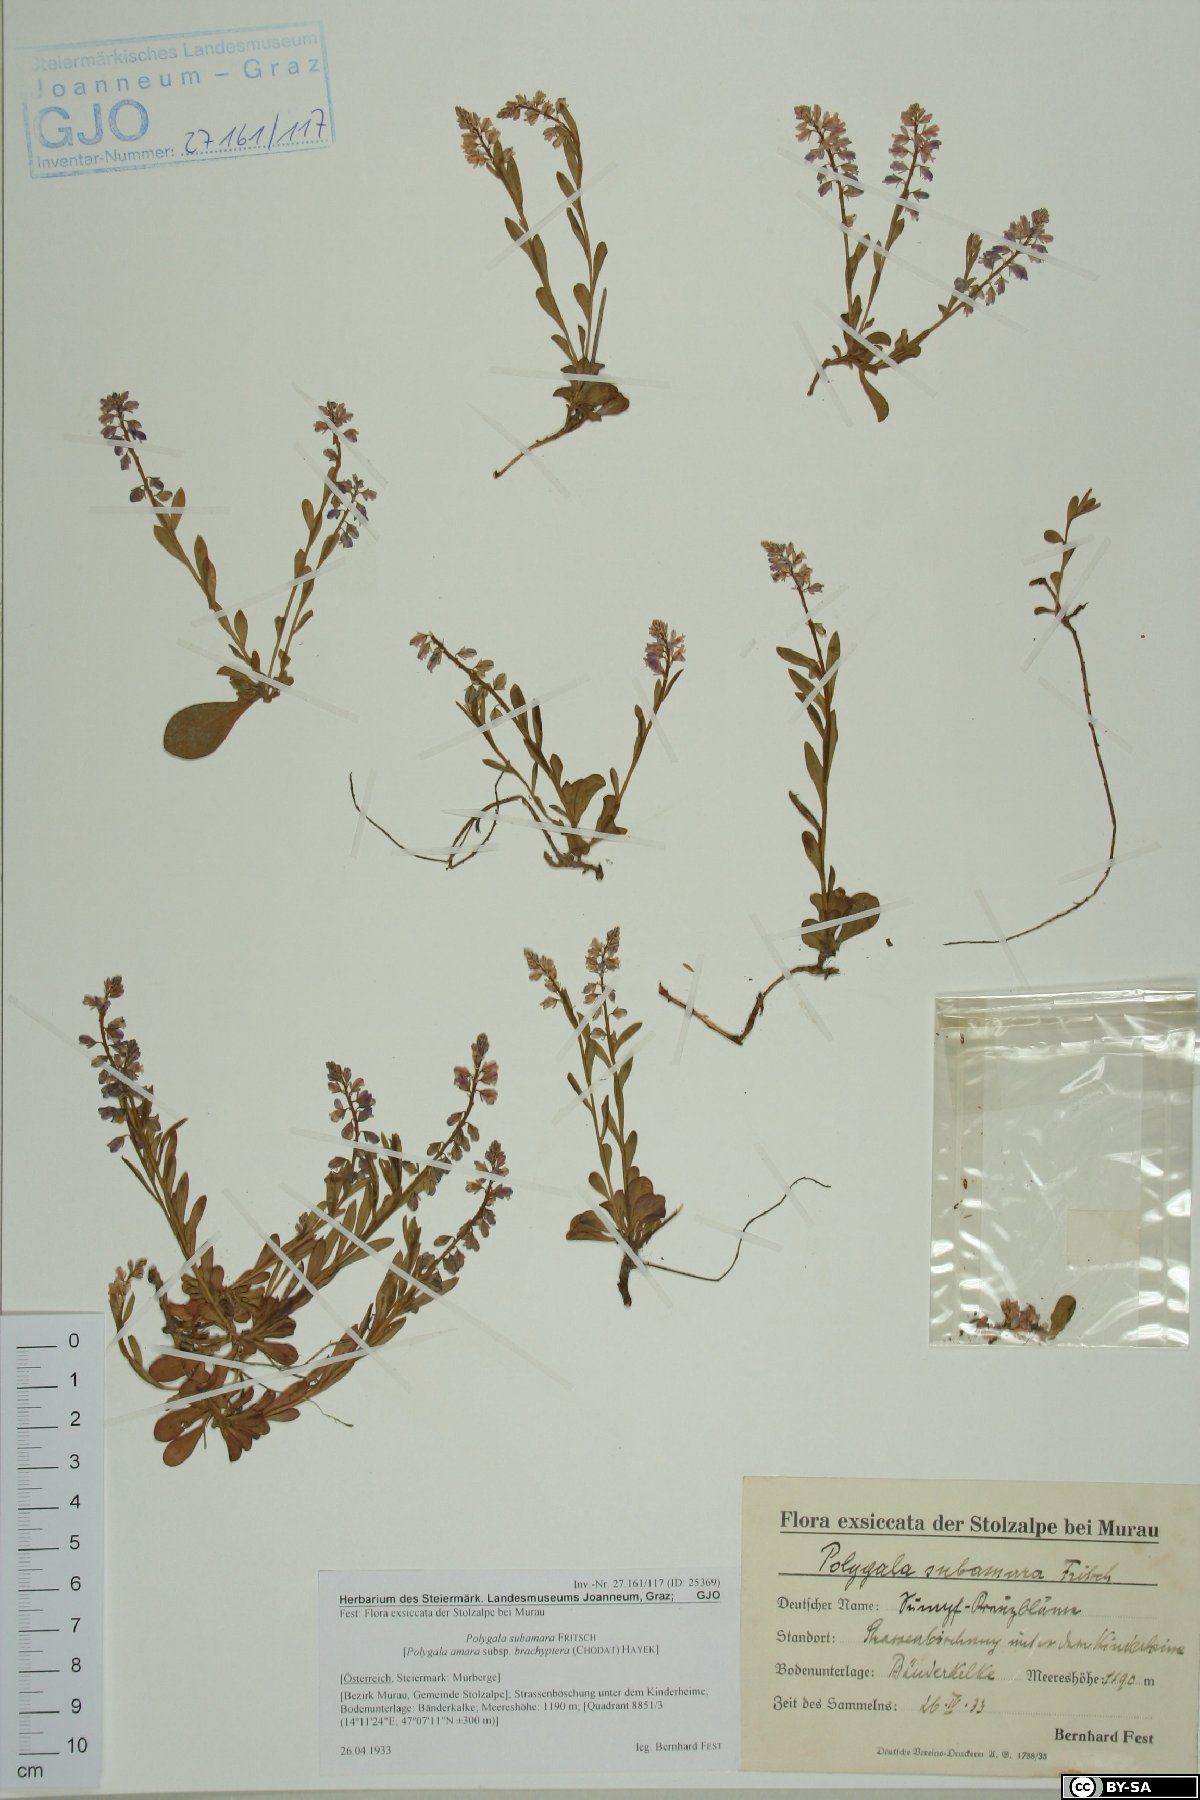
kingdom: Plantae
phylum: Tracheophyta
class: Magnoliopsida
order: Fabales
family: Polygalaceae
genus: Polygala
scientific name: Polygala amara
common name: Milkwort
